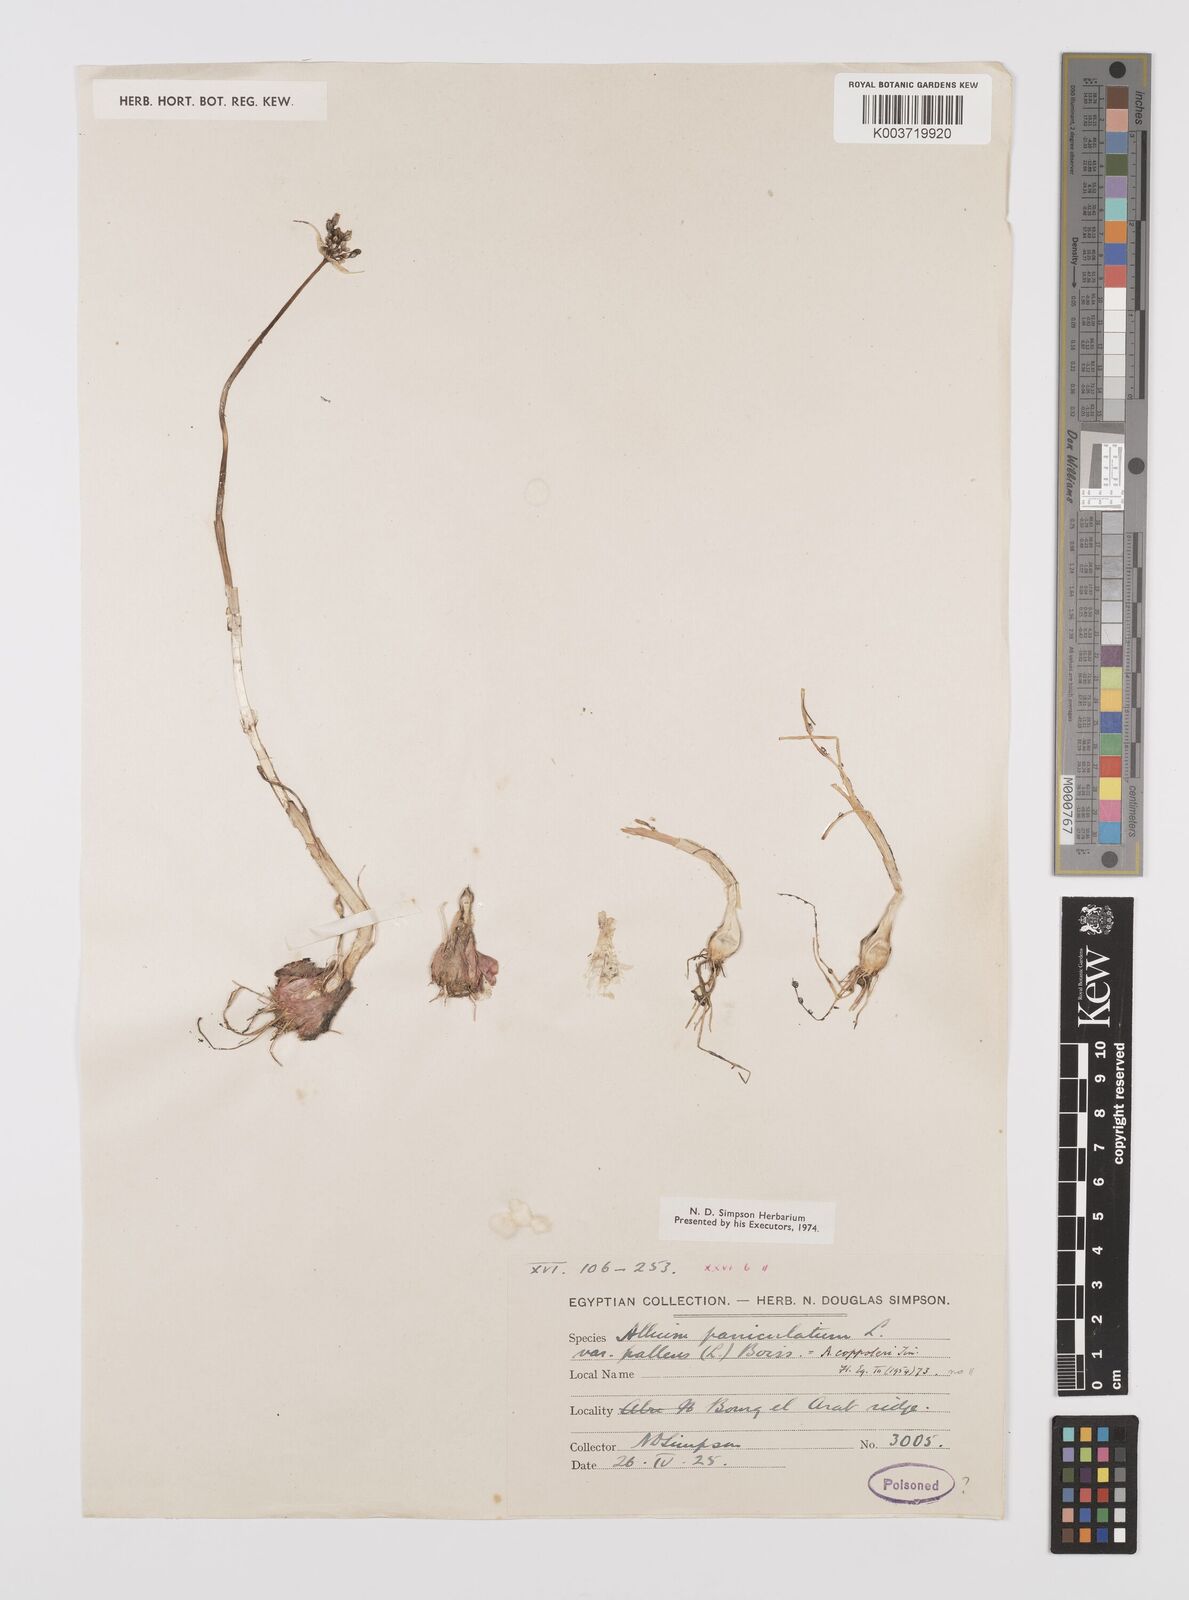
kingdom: Plantae
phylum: Tracheophyta
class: Liliopsida
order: Asparagales
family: Amaryllidaceae
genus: Allium
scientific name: Allium paniculatum
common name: Pale garlic
